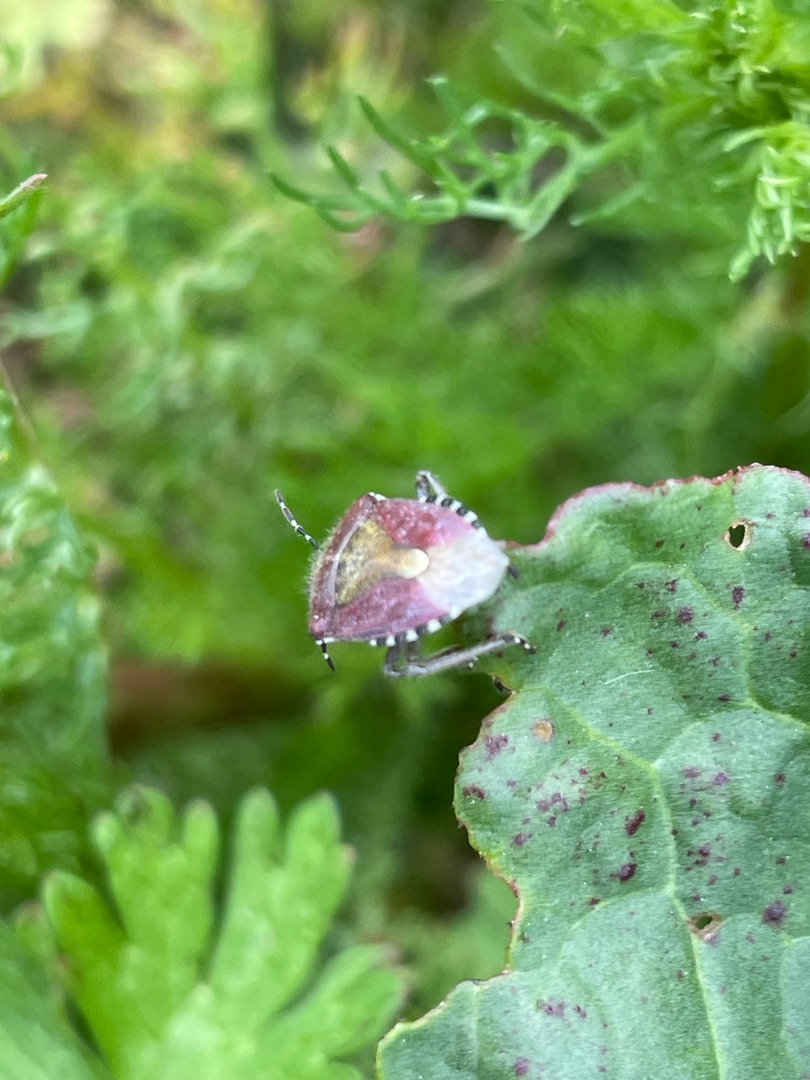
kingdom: Animalia
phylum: Arthropoda
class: Insecta
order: Hemiptera
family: Pentatomidae
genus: Dolycoris
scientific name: Dolycoris baccarum
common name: Almindelig bærtæge
